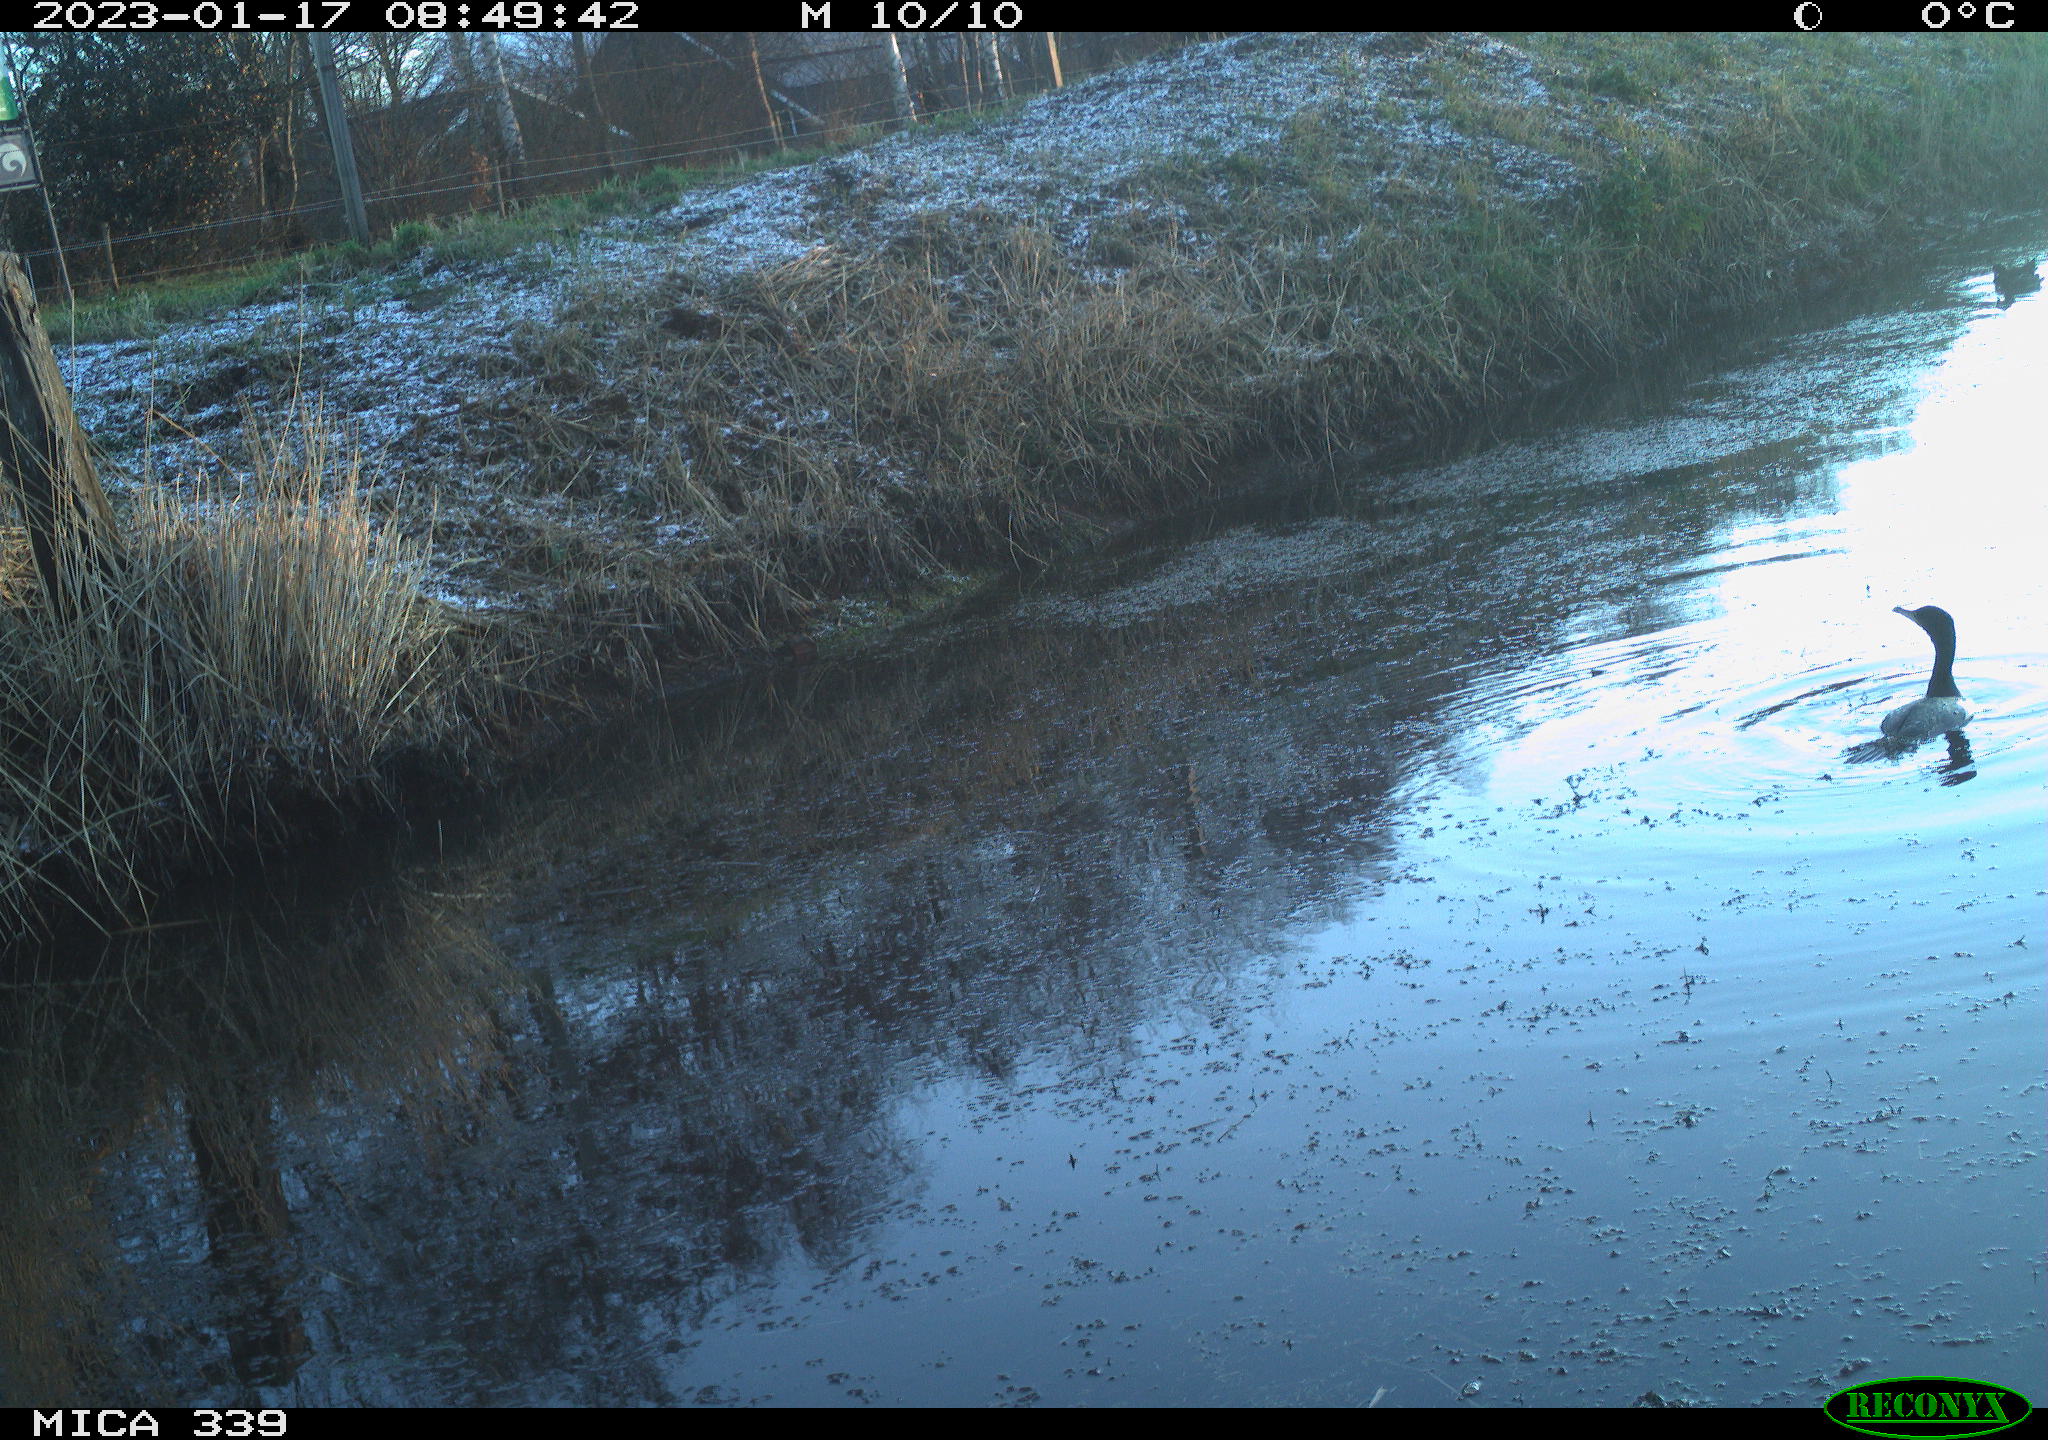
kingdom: Animalia
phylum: Chordata
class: Aves
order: Suliformes
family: Phalacrocoracidae
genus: Phalacrocorax
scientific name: Phalacrocorax carbo
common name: Great cormorant
